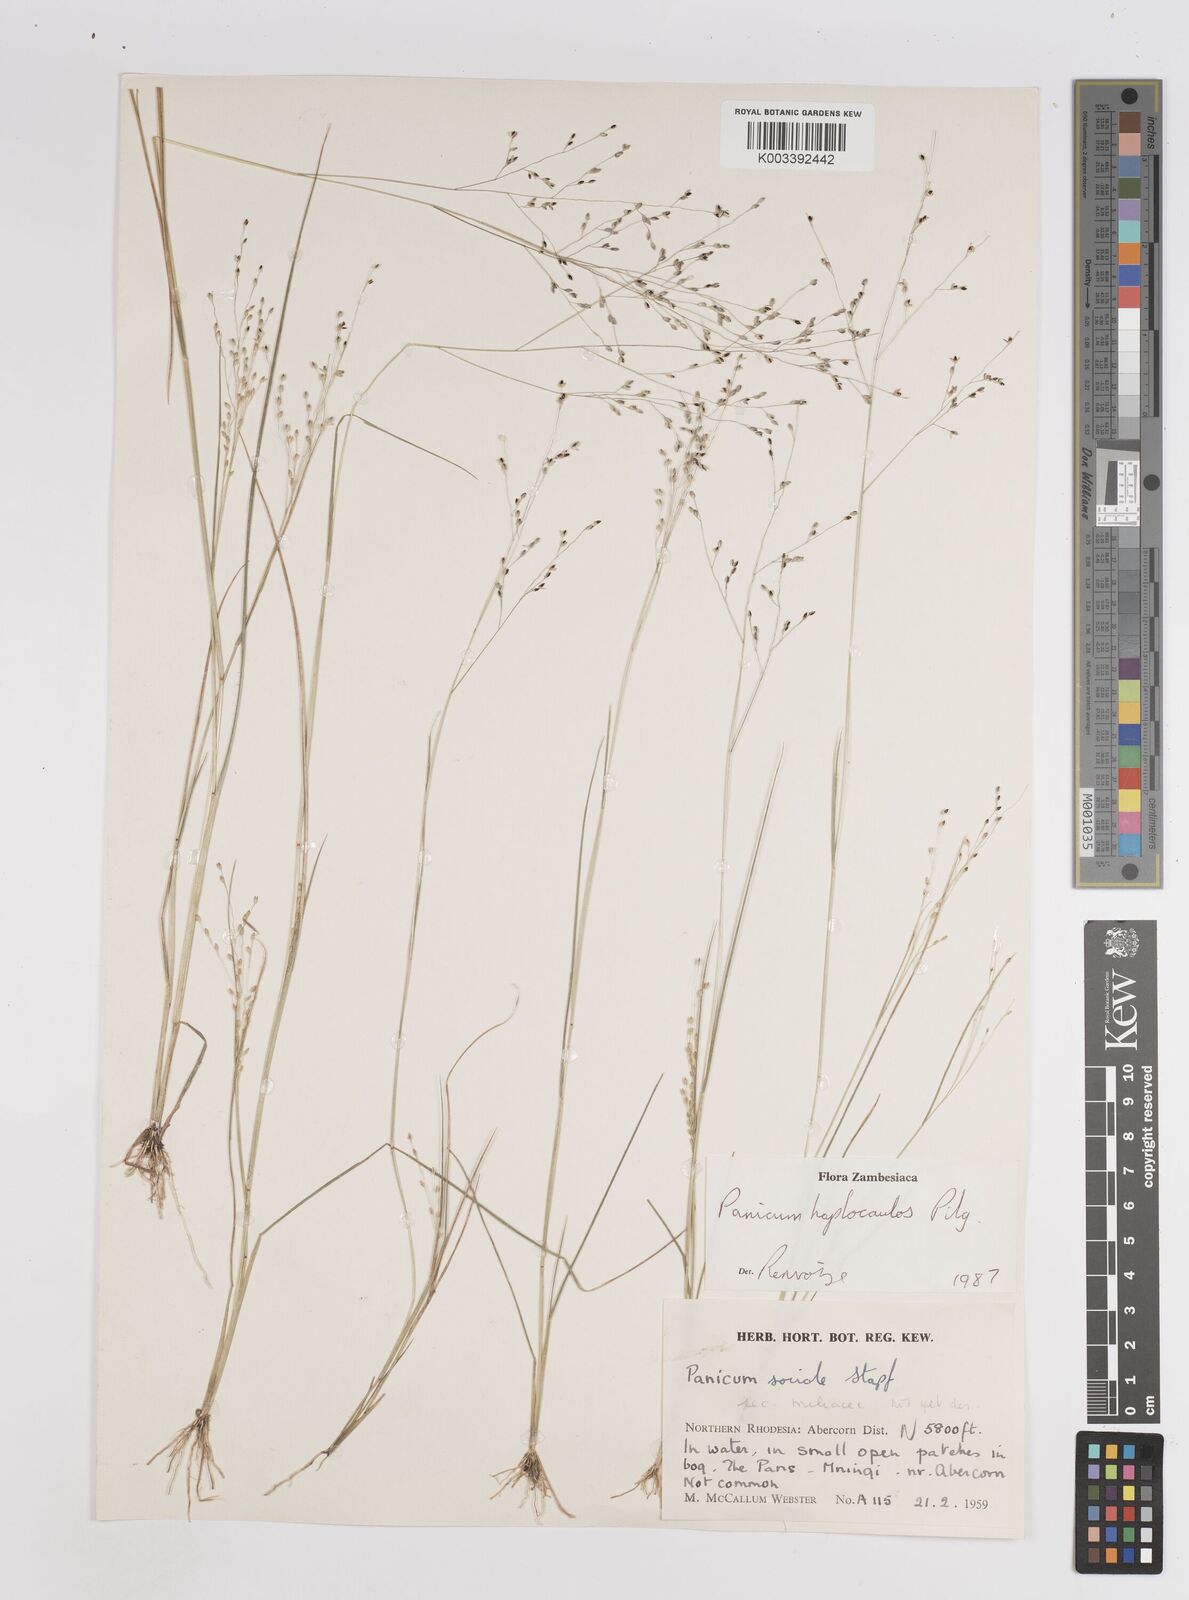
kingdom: Plantae
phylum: Tracheophyta
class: Liliopsida
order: Poales
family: Poaceae
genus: Panicum
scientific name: Panicum haplocaulos
